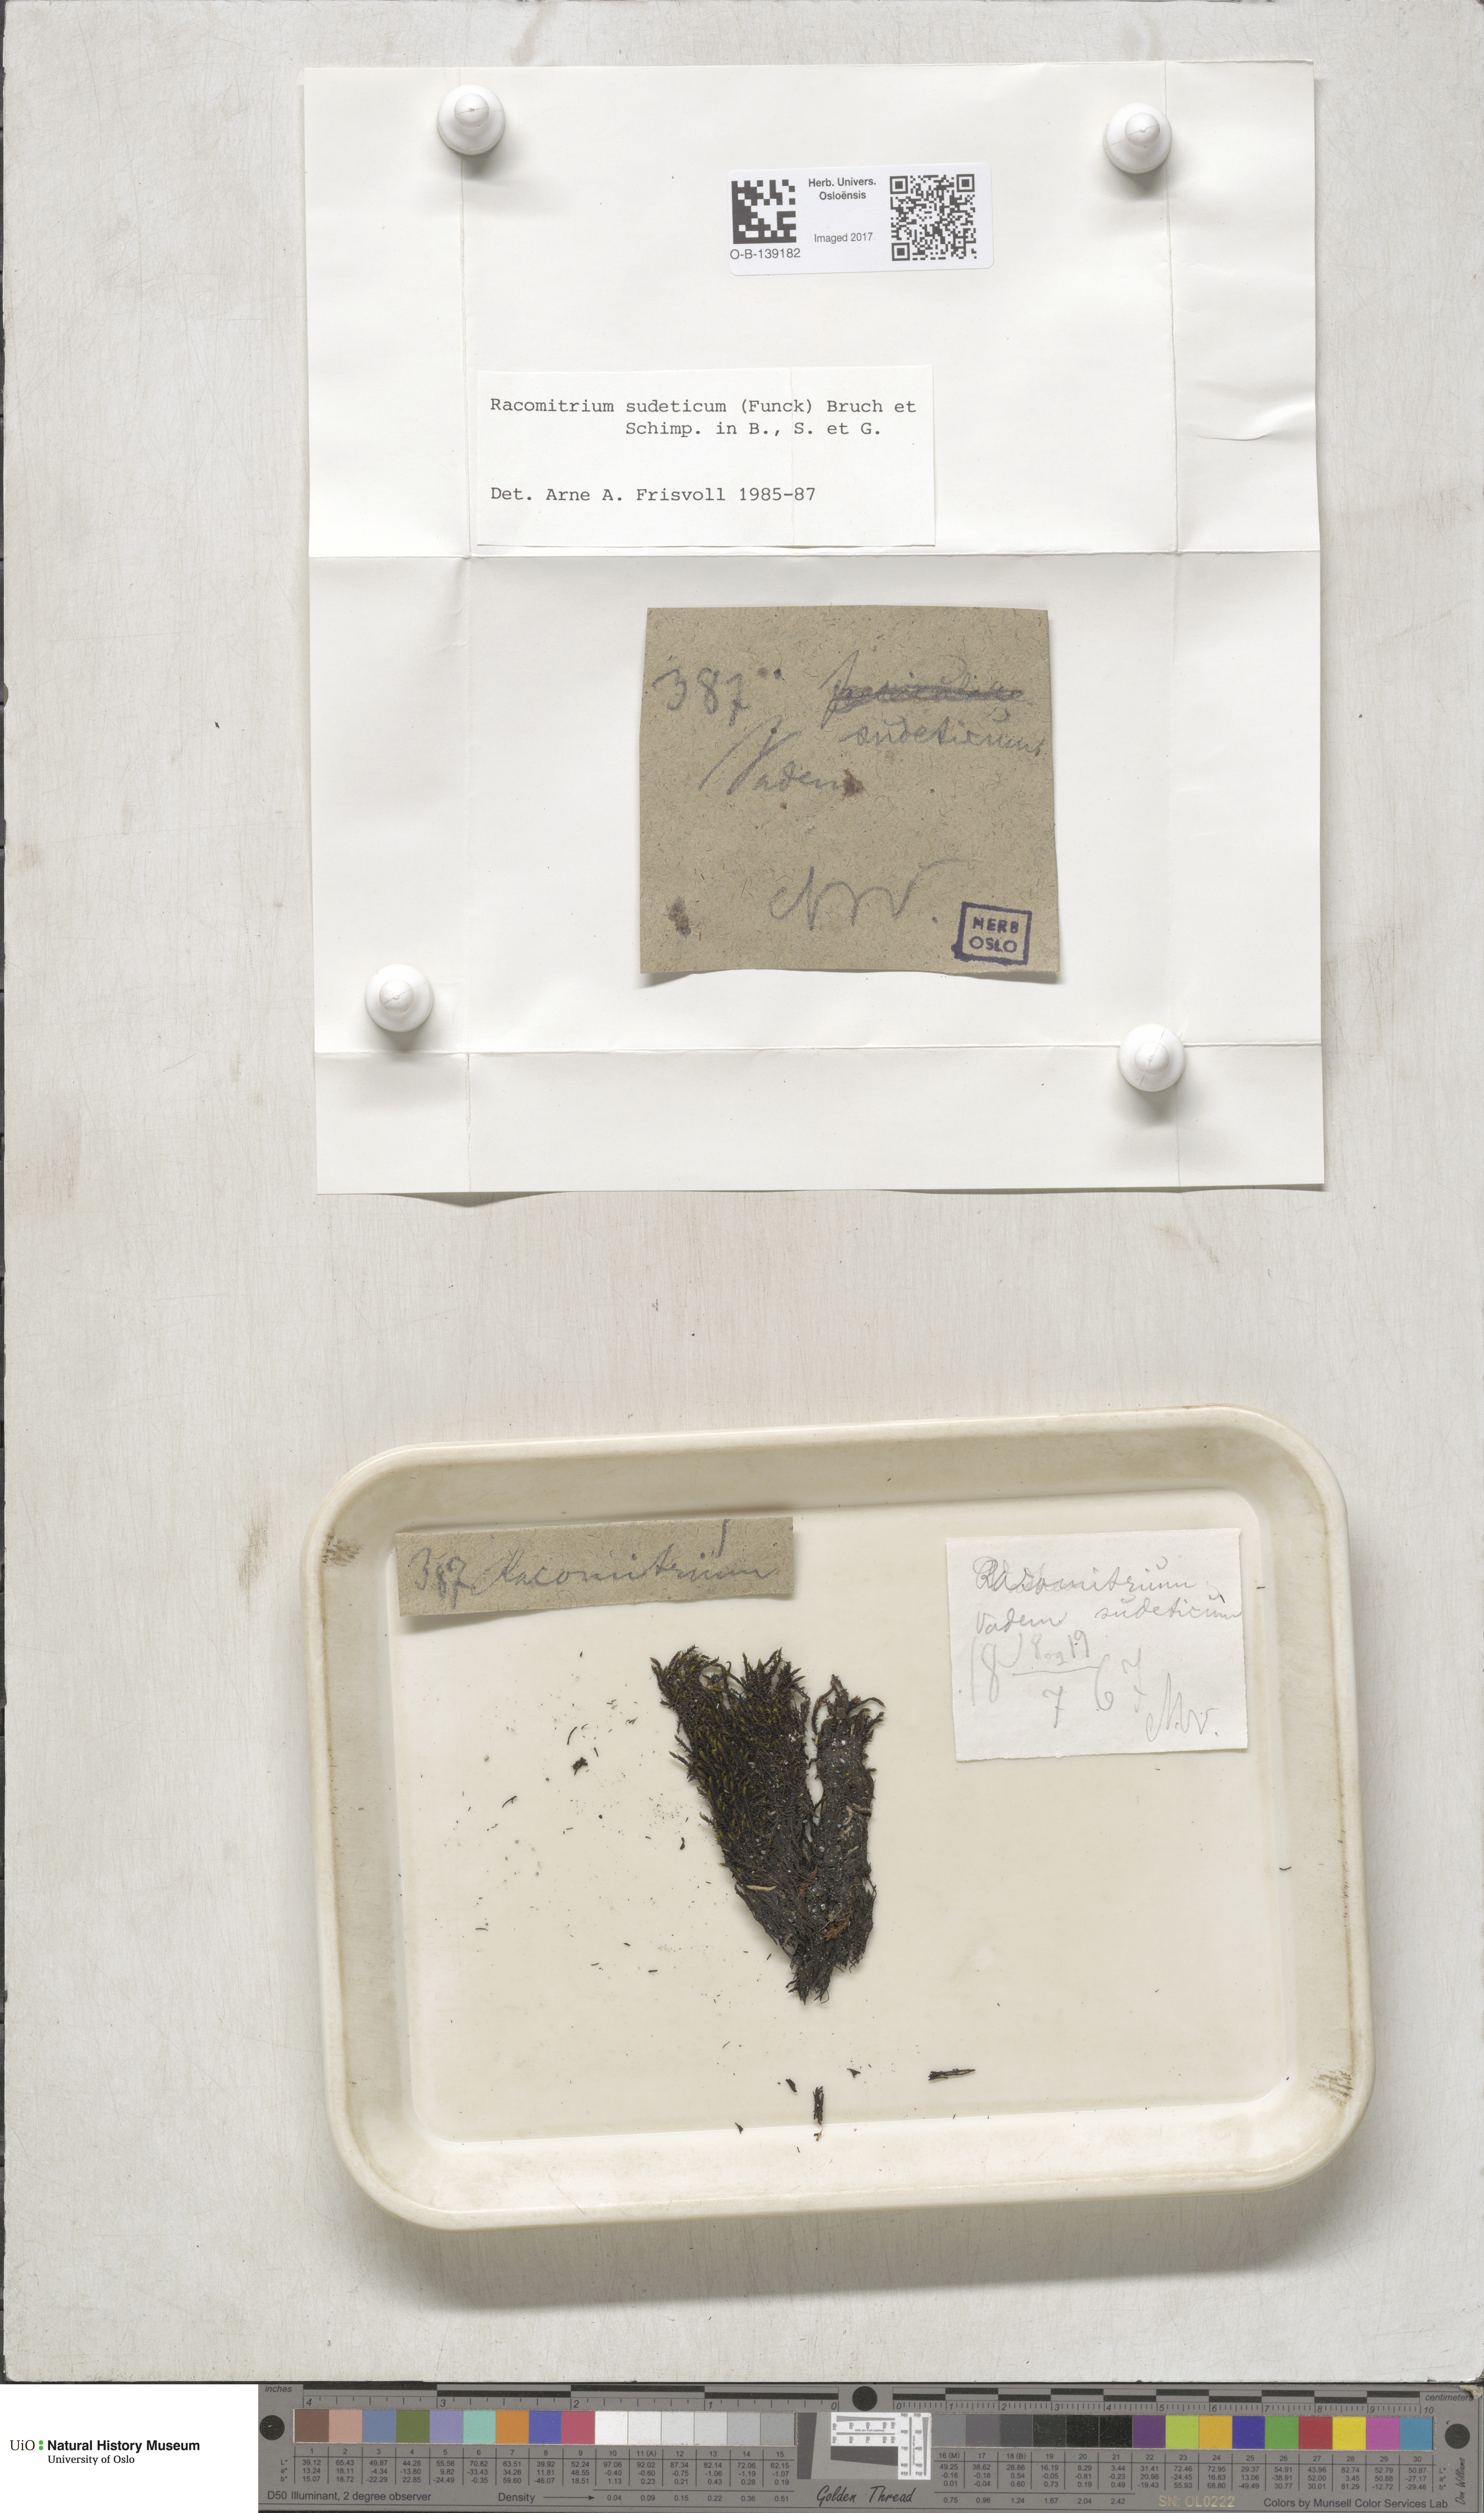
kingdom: Plantae
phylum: Bryophyta
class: Bryopsida
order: Grimmiales
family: Grimmiaceae
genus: Bucklandiella
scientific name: Bucklandiella sudetica
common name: Slender fringe-moss
